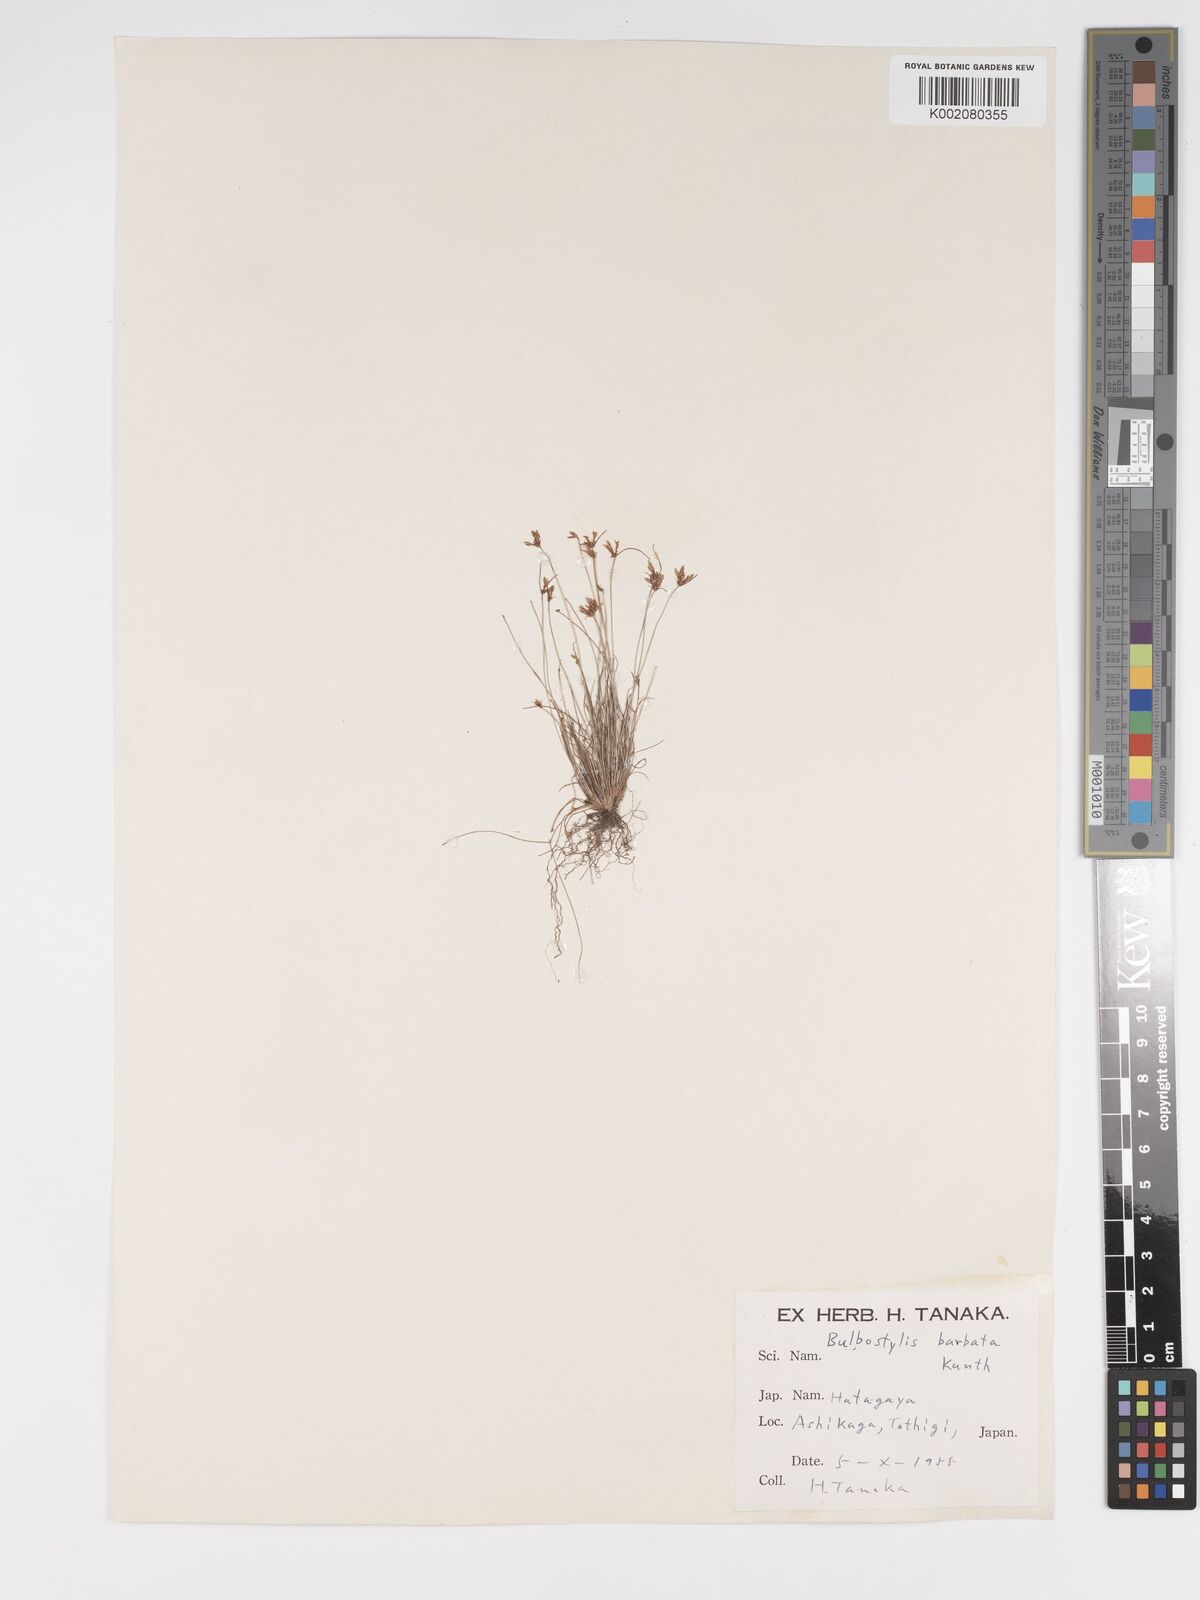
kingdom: Plantae
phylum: Tracheophyta
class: Liliopsida
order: Poales
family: Cyperaceae
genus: Bulbostylis
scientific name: Bulbostylis barbata
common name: Watergrass
